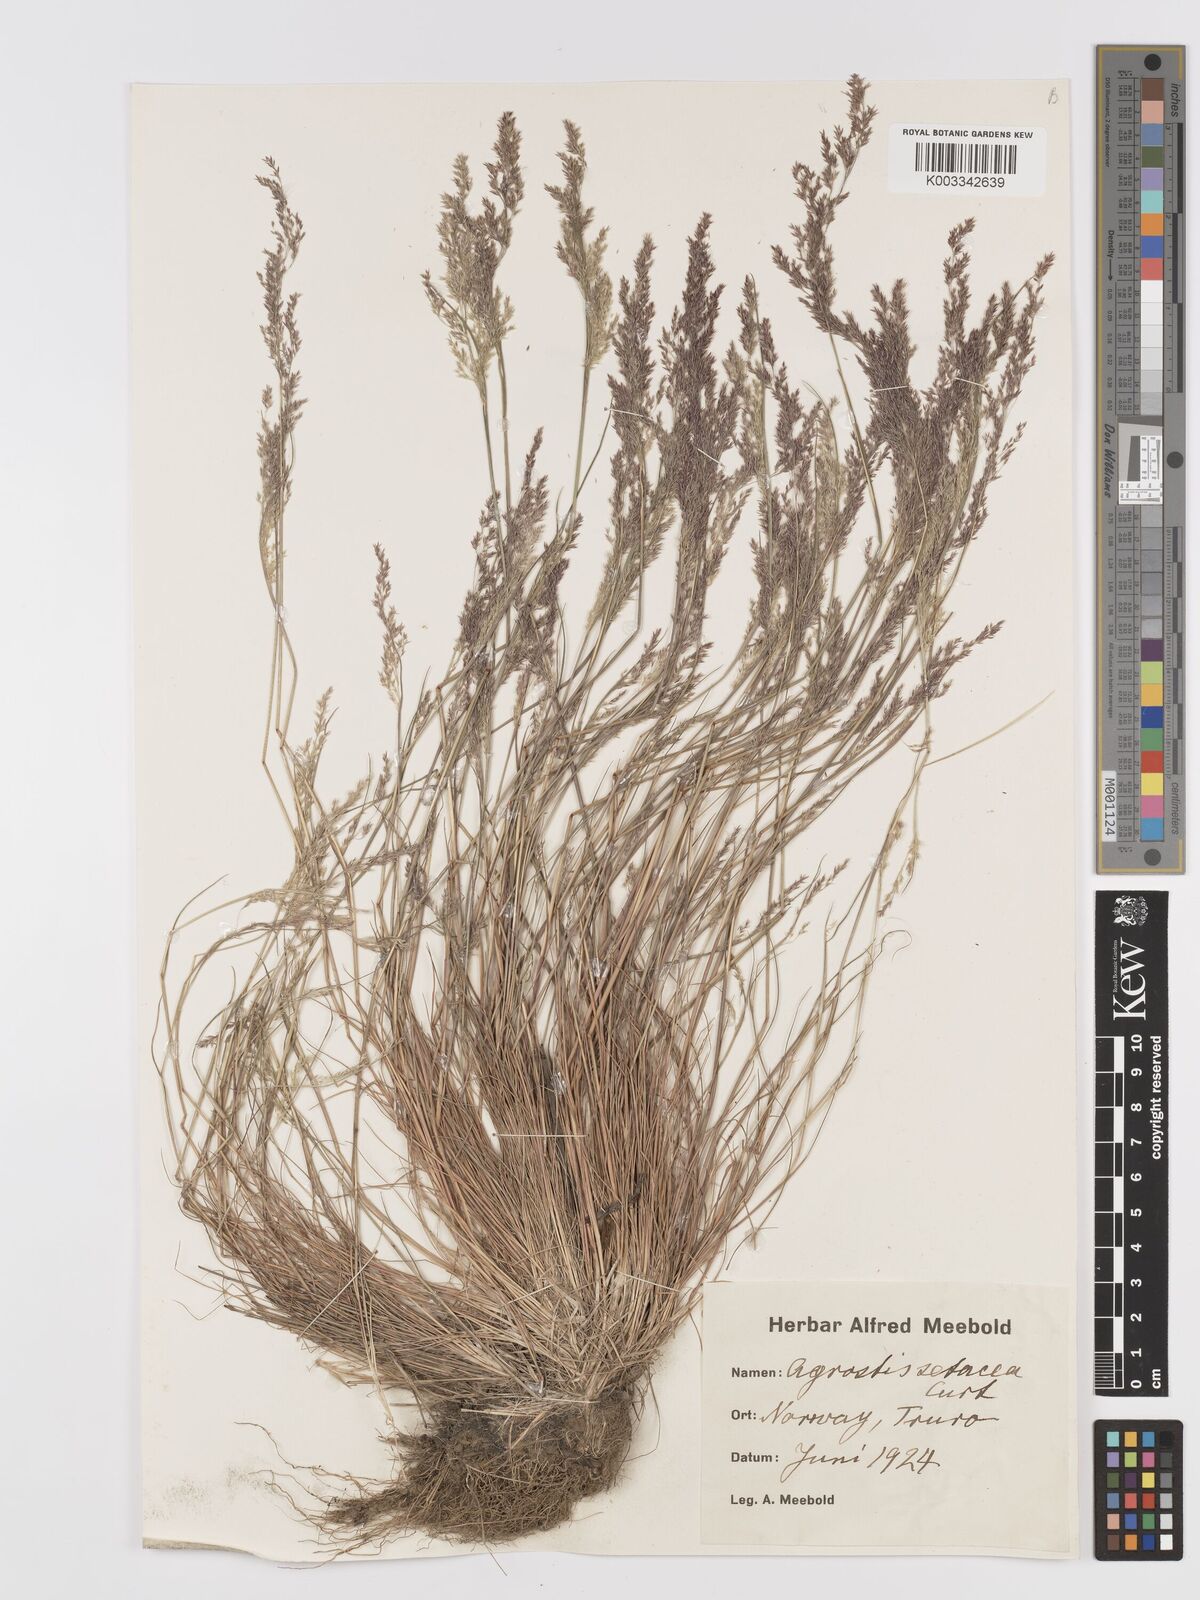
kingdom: Plantae
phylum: Tracheophyta
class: Liliopsida
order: Poales
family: Poaceae
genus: Agrostis
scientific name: Agrostis
